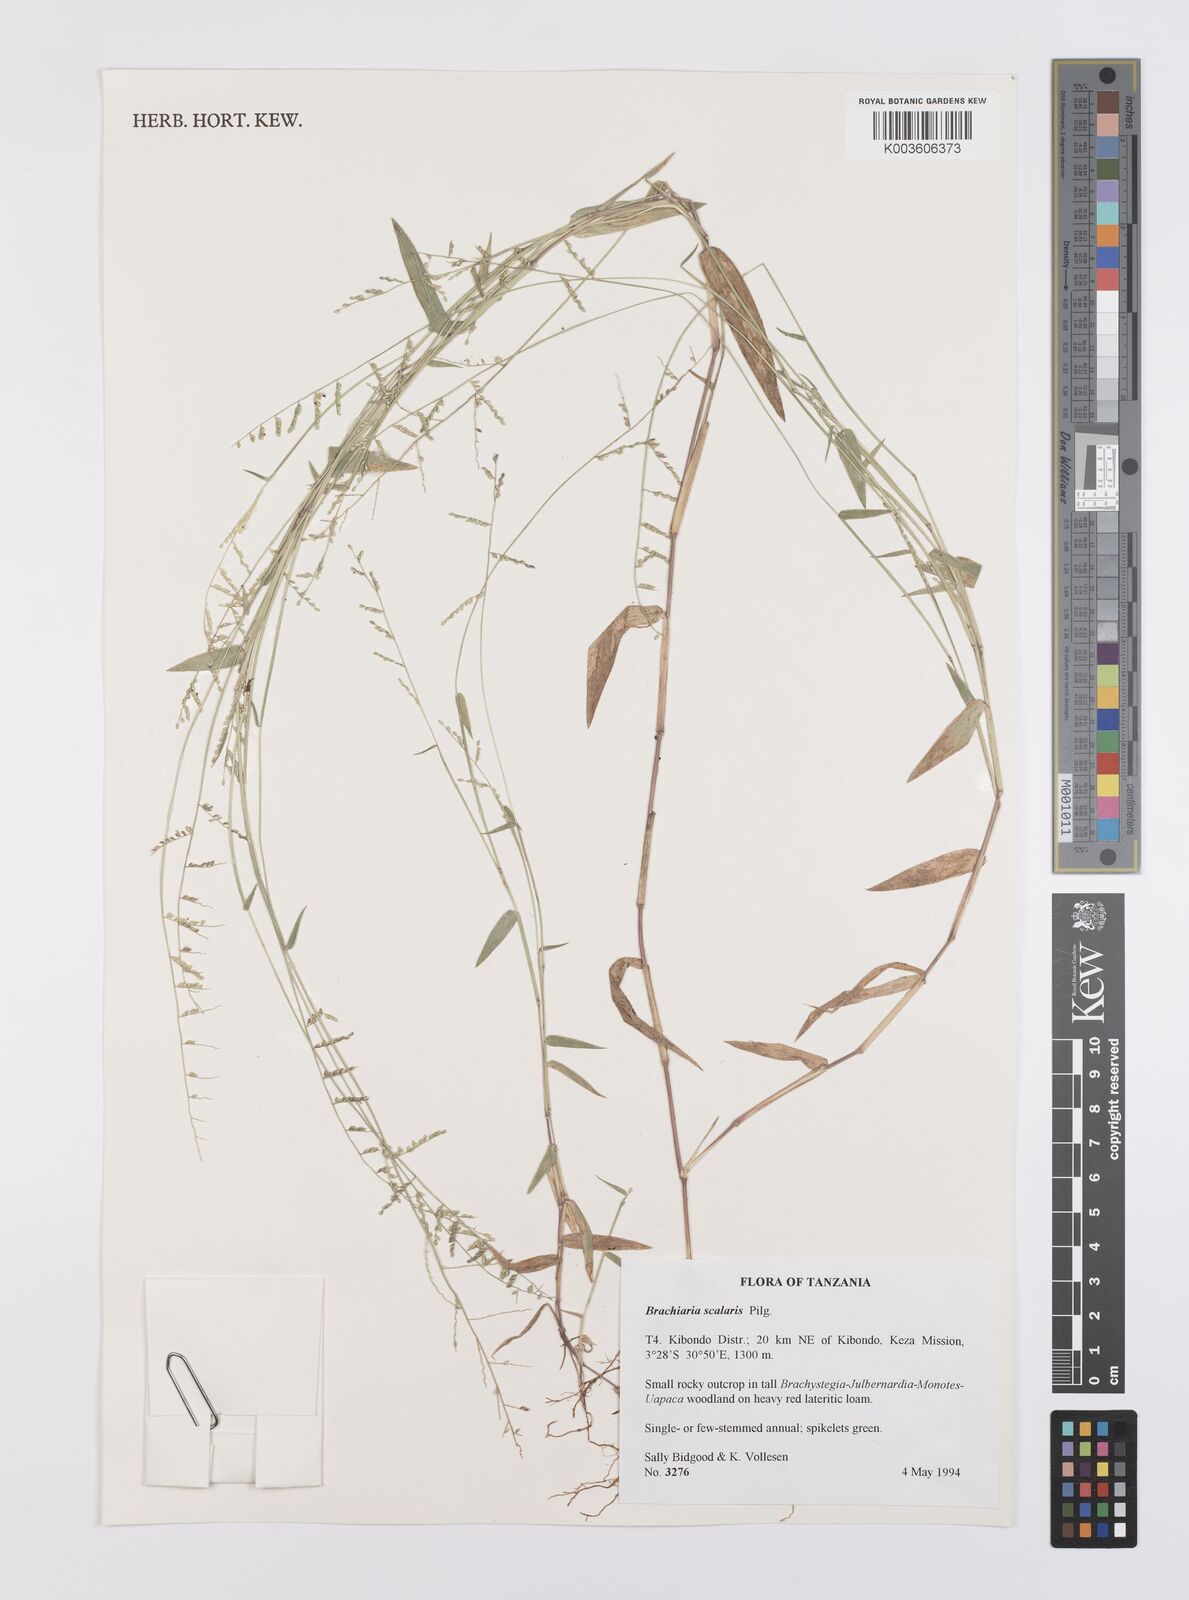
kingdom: Plantae
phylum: Tracheophyta
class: Liliopsida
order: Poales
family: Poaceae
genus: Urochloa
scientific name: Urochloa comata
